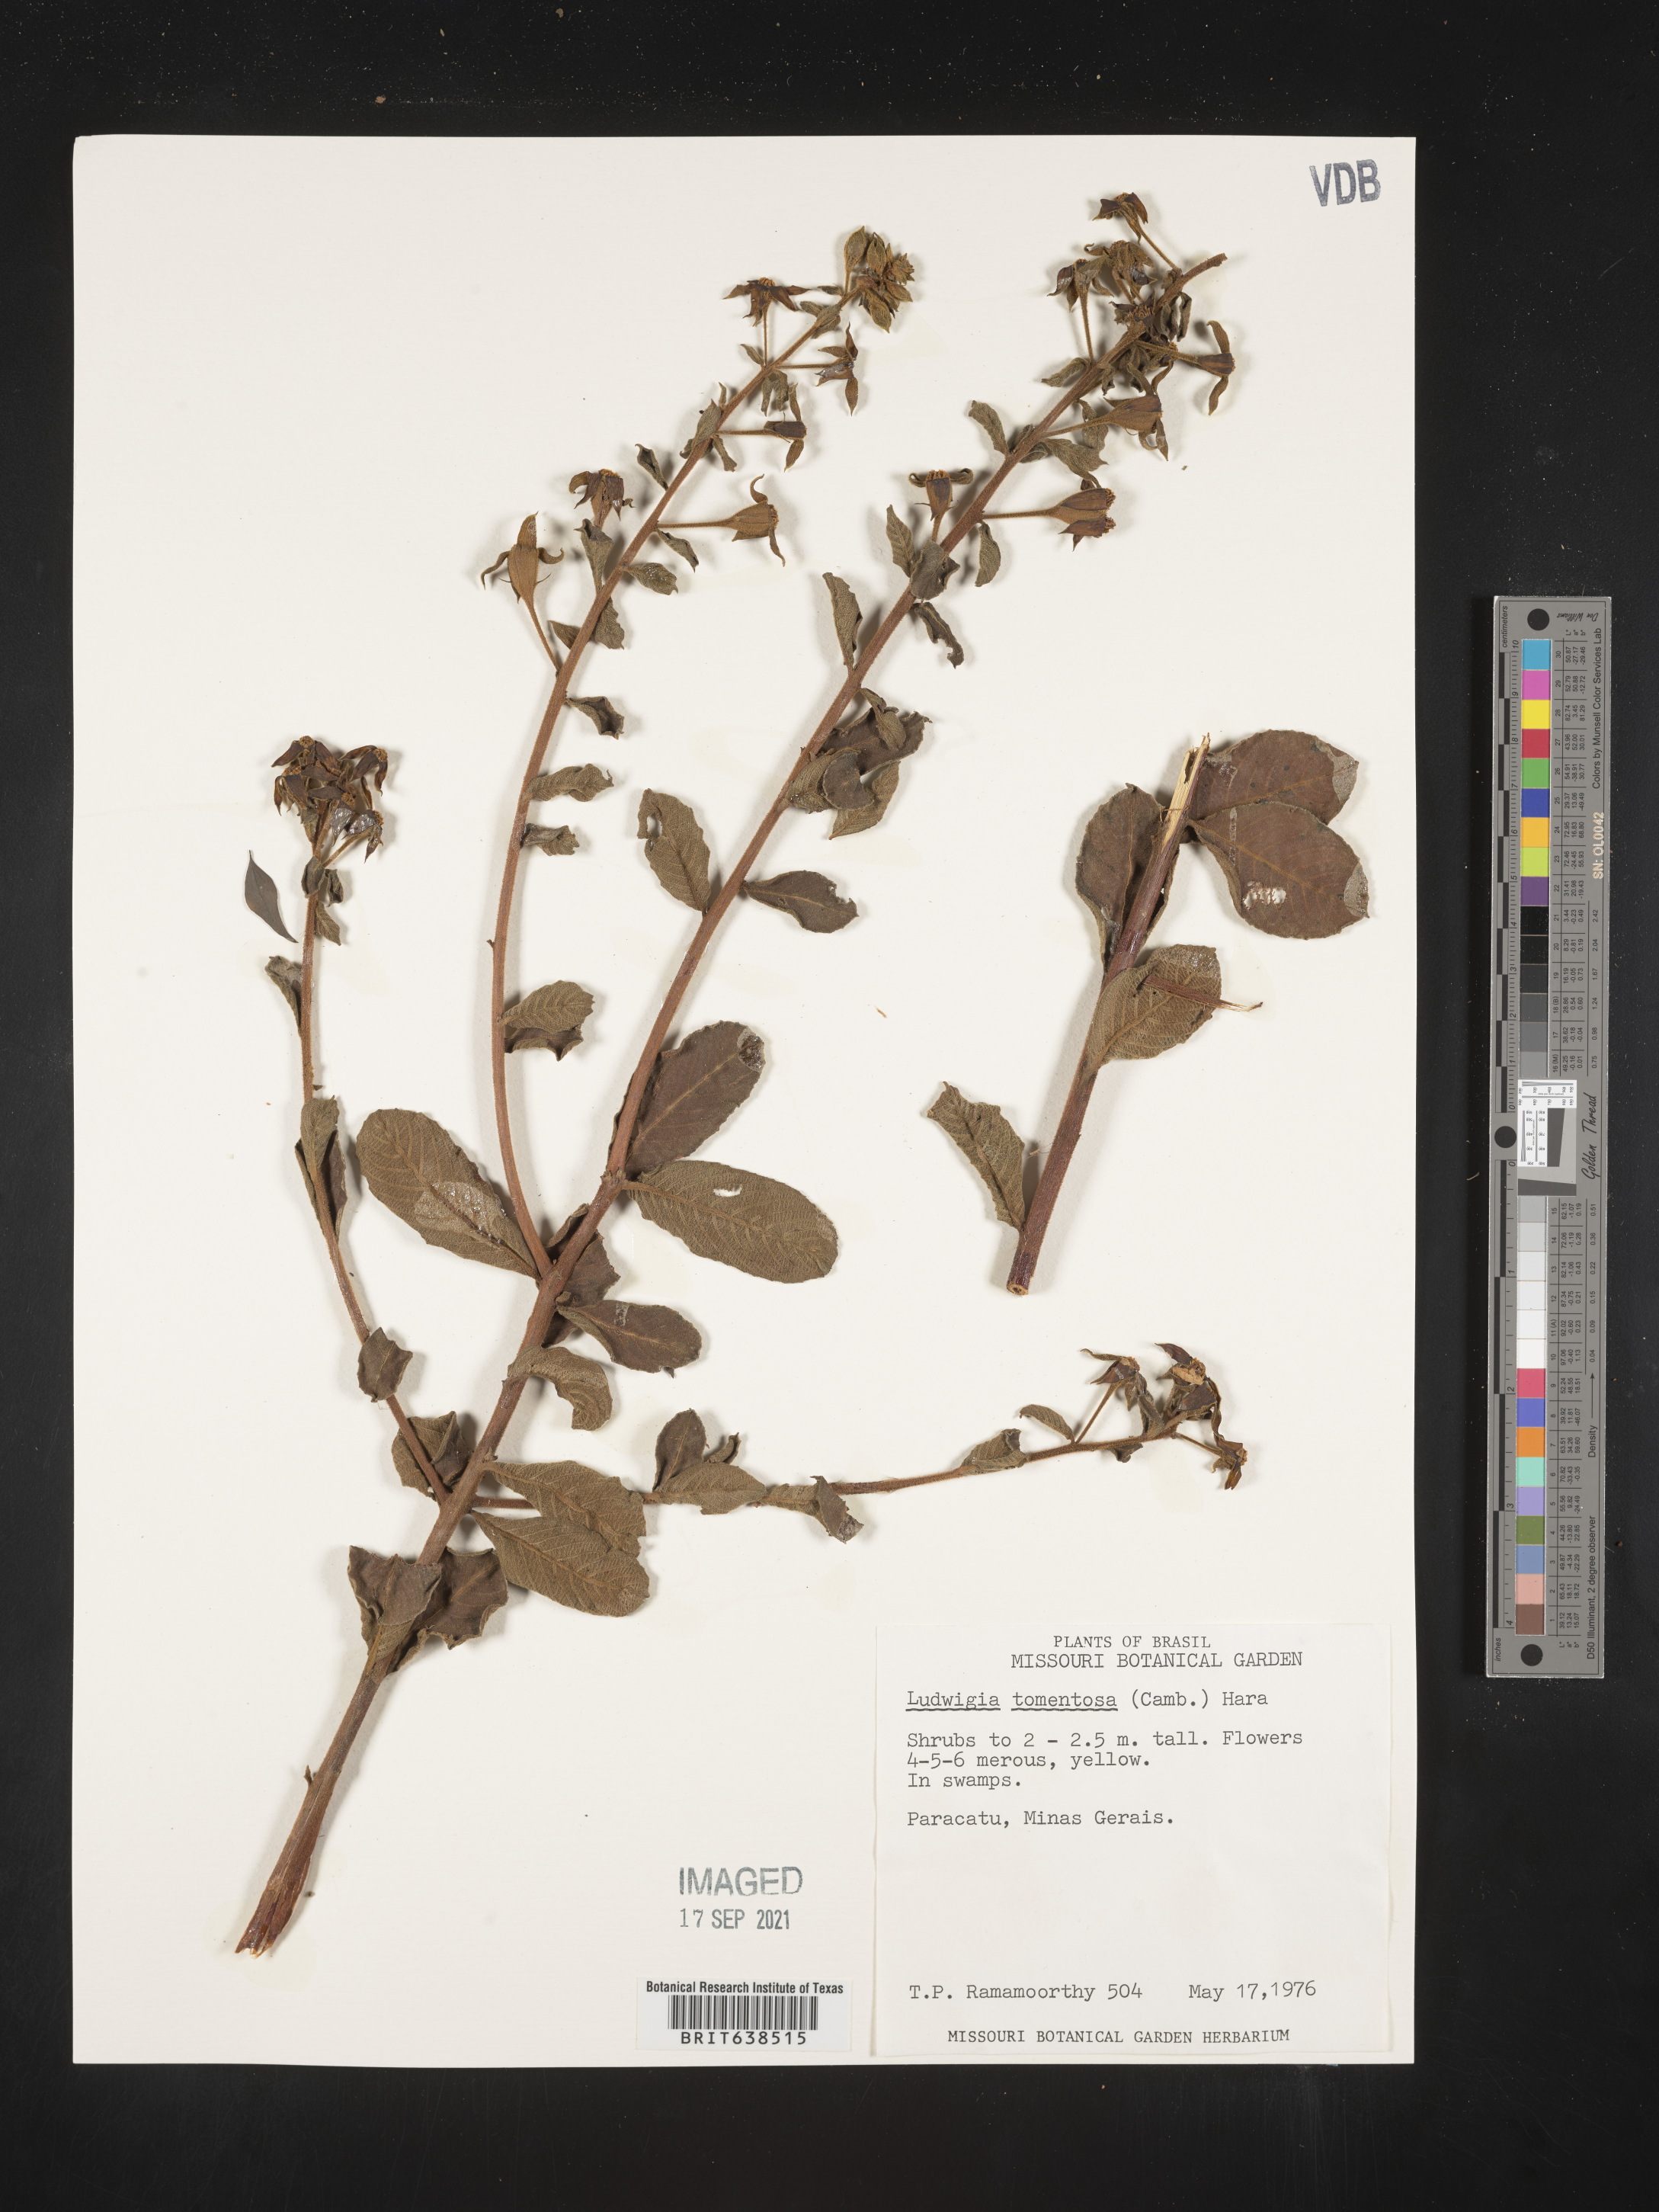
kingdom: Plantae
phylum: Tracheophyta
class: Magnoliopsida
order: Myrtales
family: Onagraceae
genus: Ludwigia
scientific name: Ludwigia
